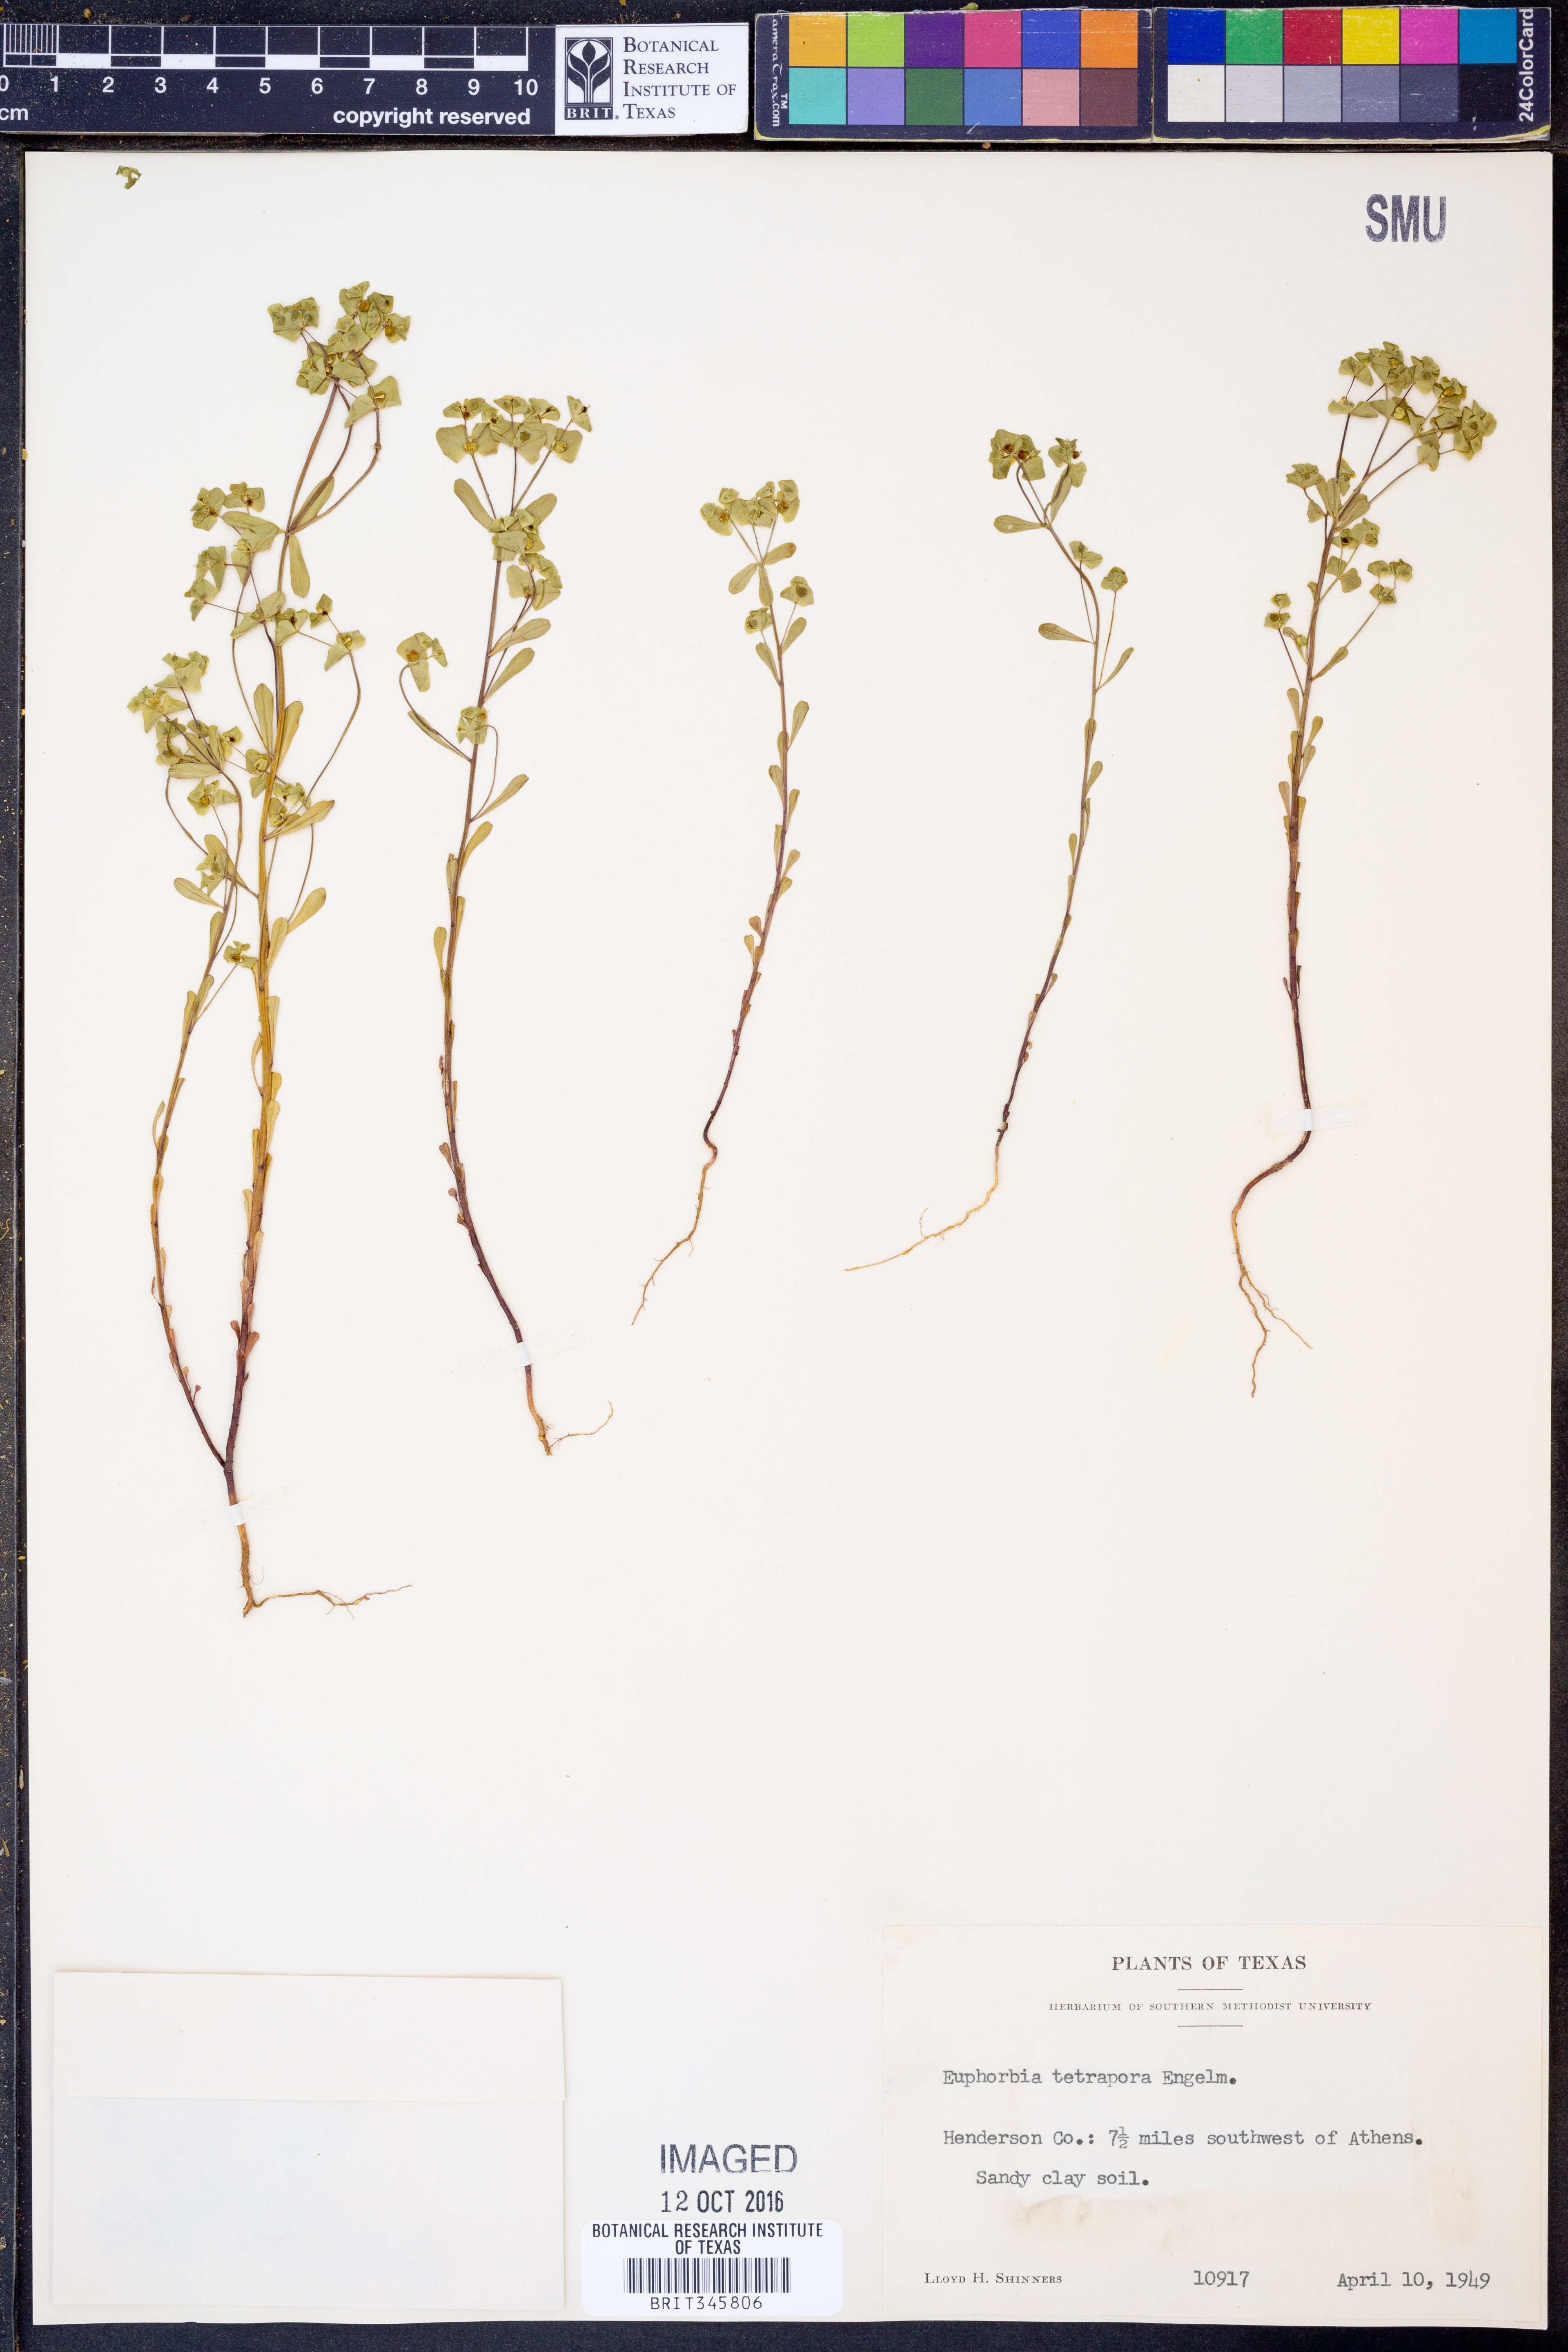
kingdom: Plantae
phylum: Tracheophyta
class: Magnoliopsida
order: Malpighiales
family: Euphorbiaceae
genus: Euphorbia
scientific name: Euphorbia tetrapora
